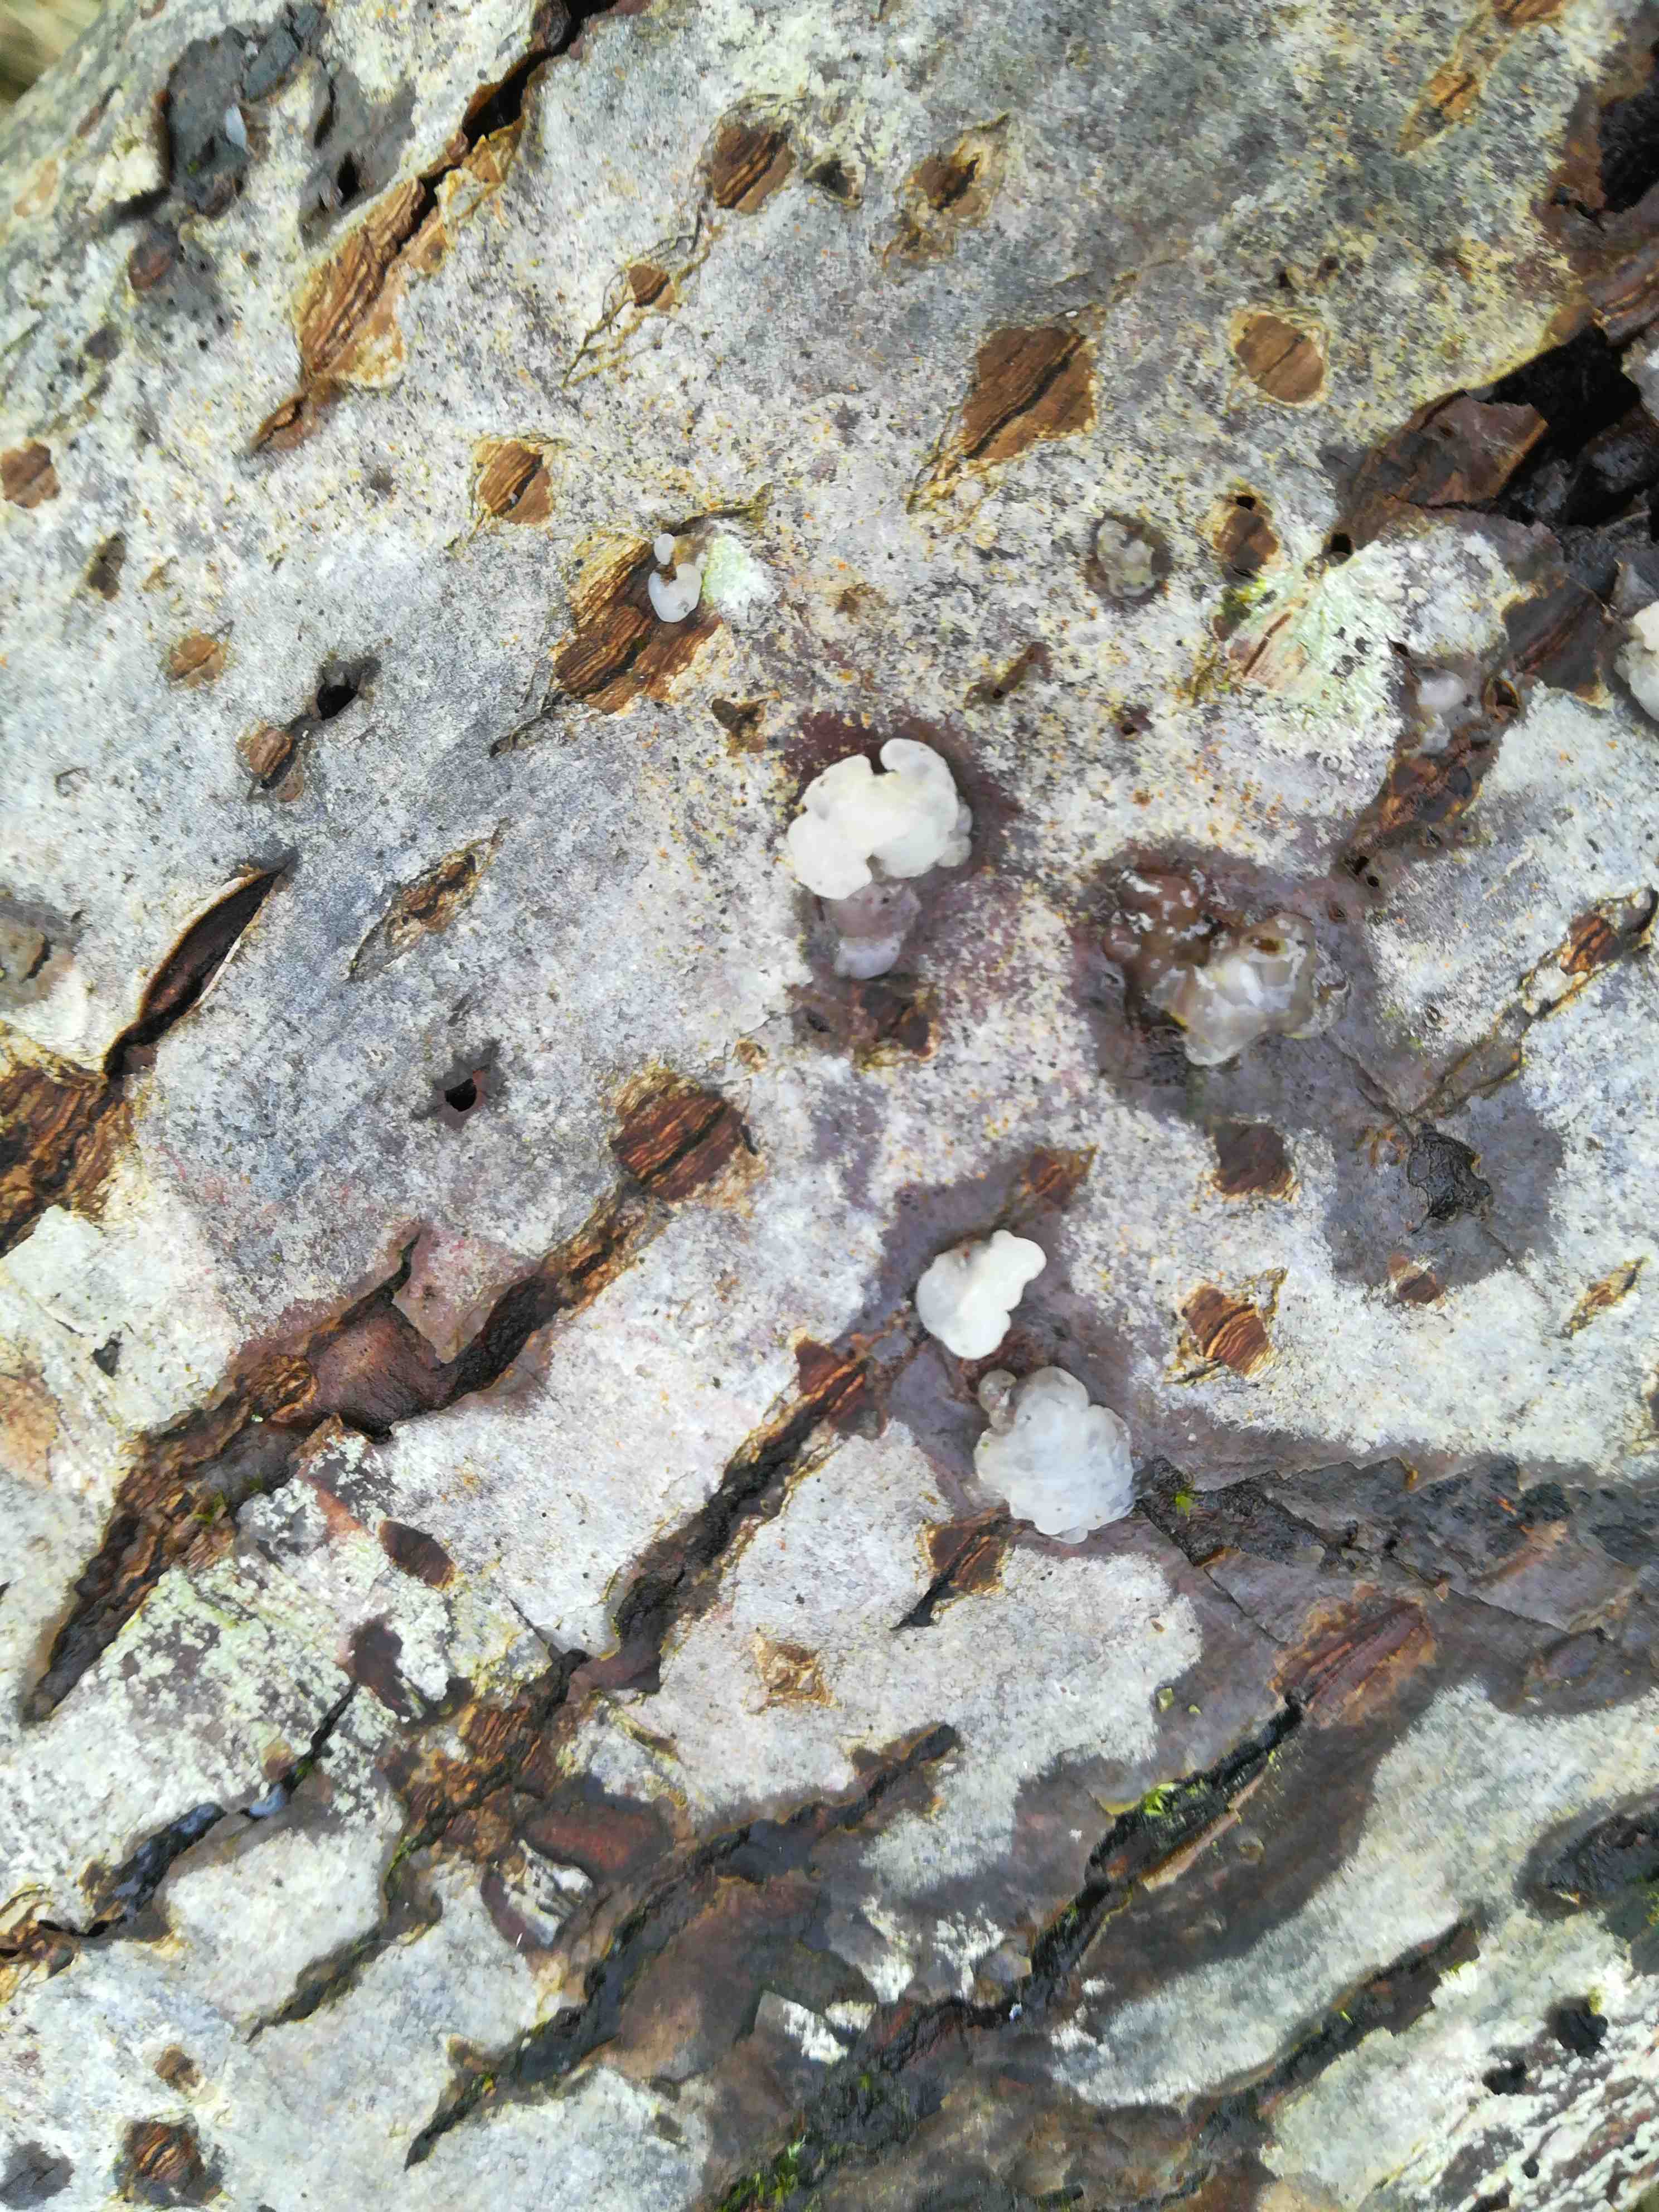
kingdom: Fungi
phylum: Basidiomycota
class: Agaricomycetes
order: Auriculariales
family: Hyaloriaceae
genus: Myxarium
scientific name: Myxarium nucleatum
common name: klar bævretop
